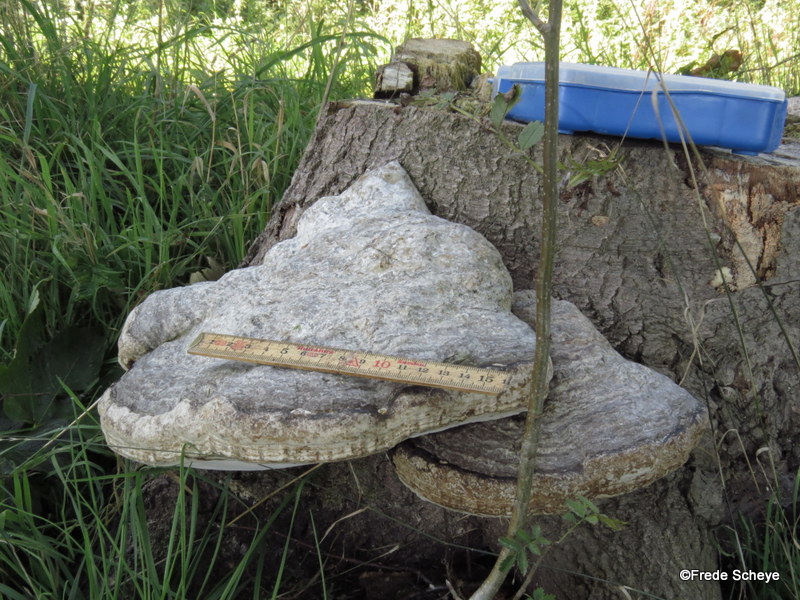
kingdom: Fungi
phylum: Basidiomycota
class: Agaricomycetes
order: Polyporales
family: Polyporaceae
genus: Fomes
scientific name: Fomes fomentarius
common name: tøndersvamp
